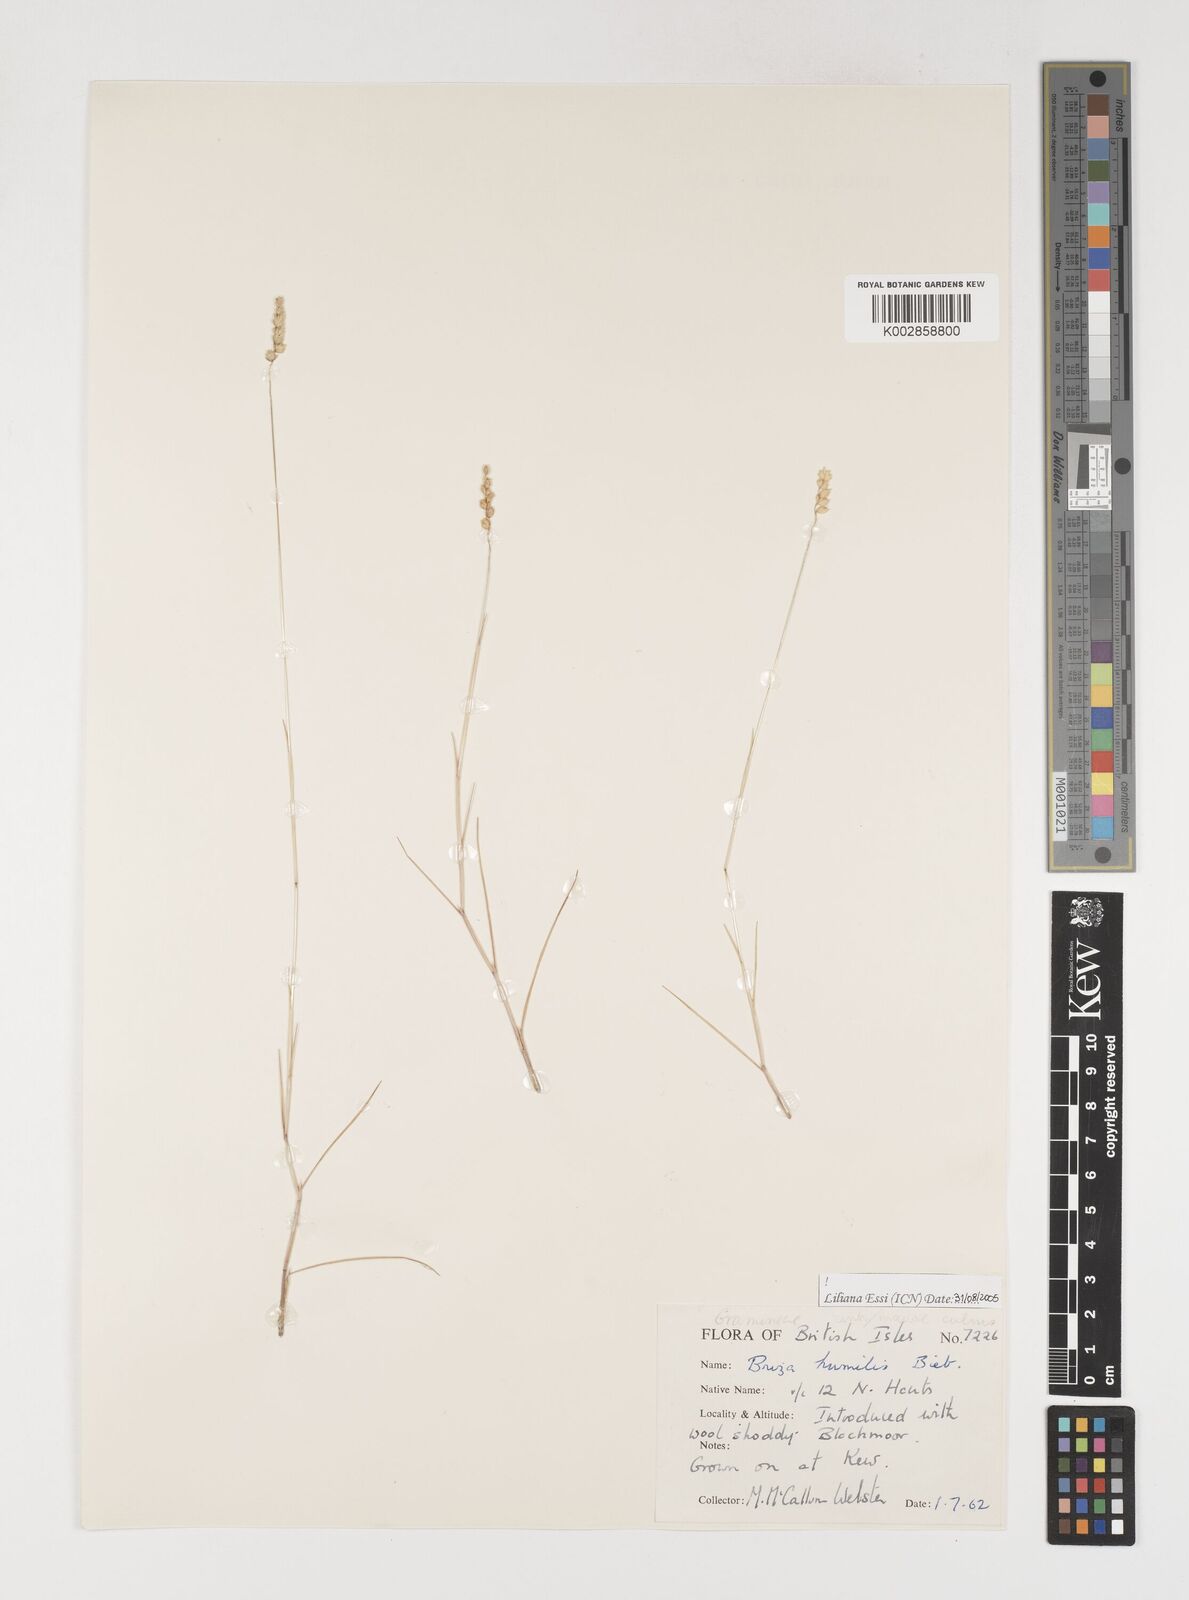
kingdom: Plantae
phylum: Tracheophyta
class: Liliopsida
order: Poales
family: Poaceae
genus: Briza
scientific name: Briza humilis
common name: Spiked quaking grass
